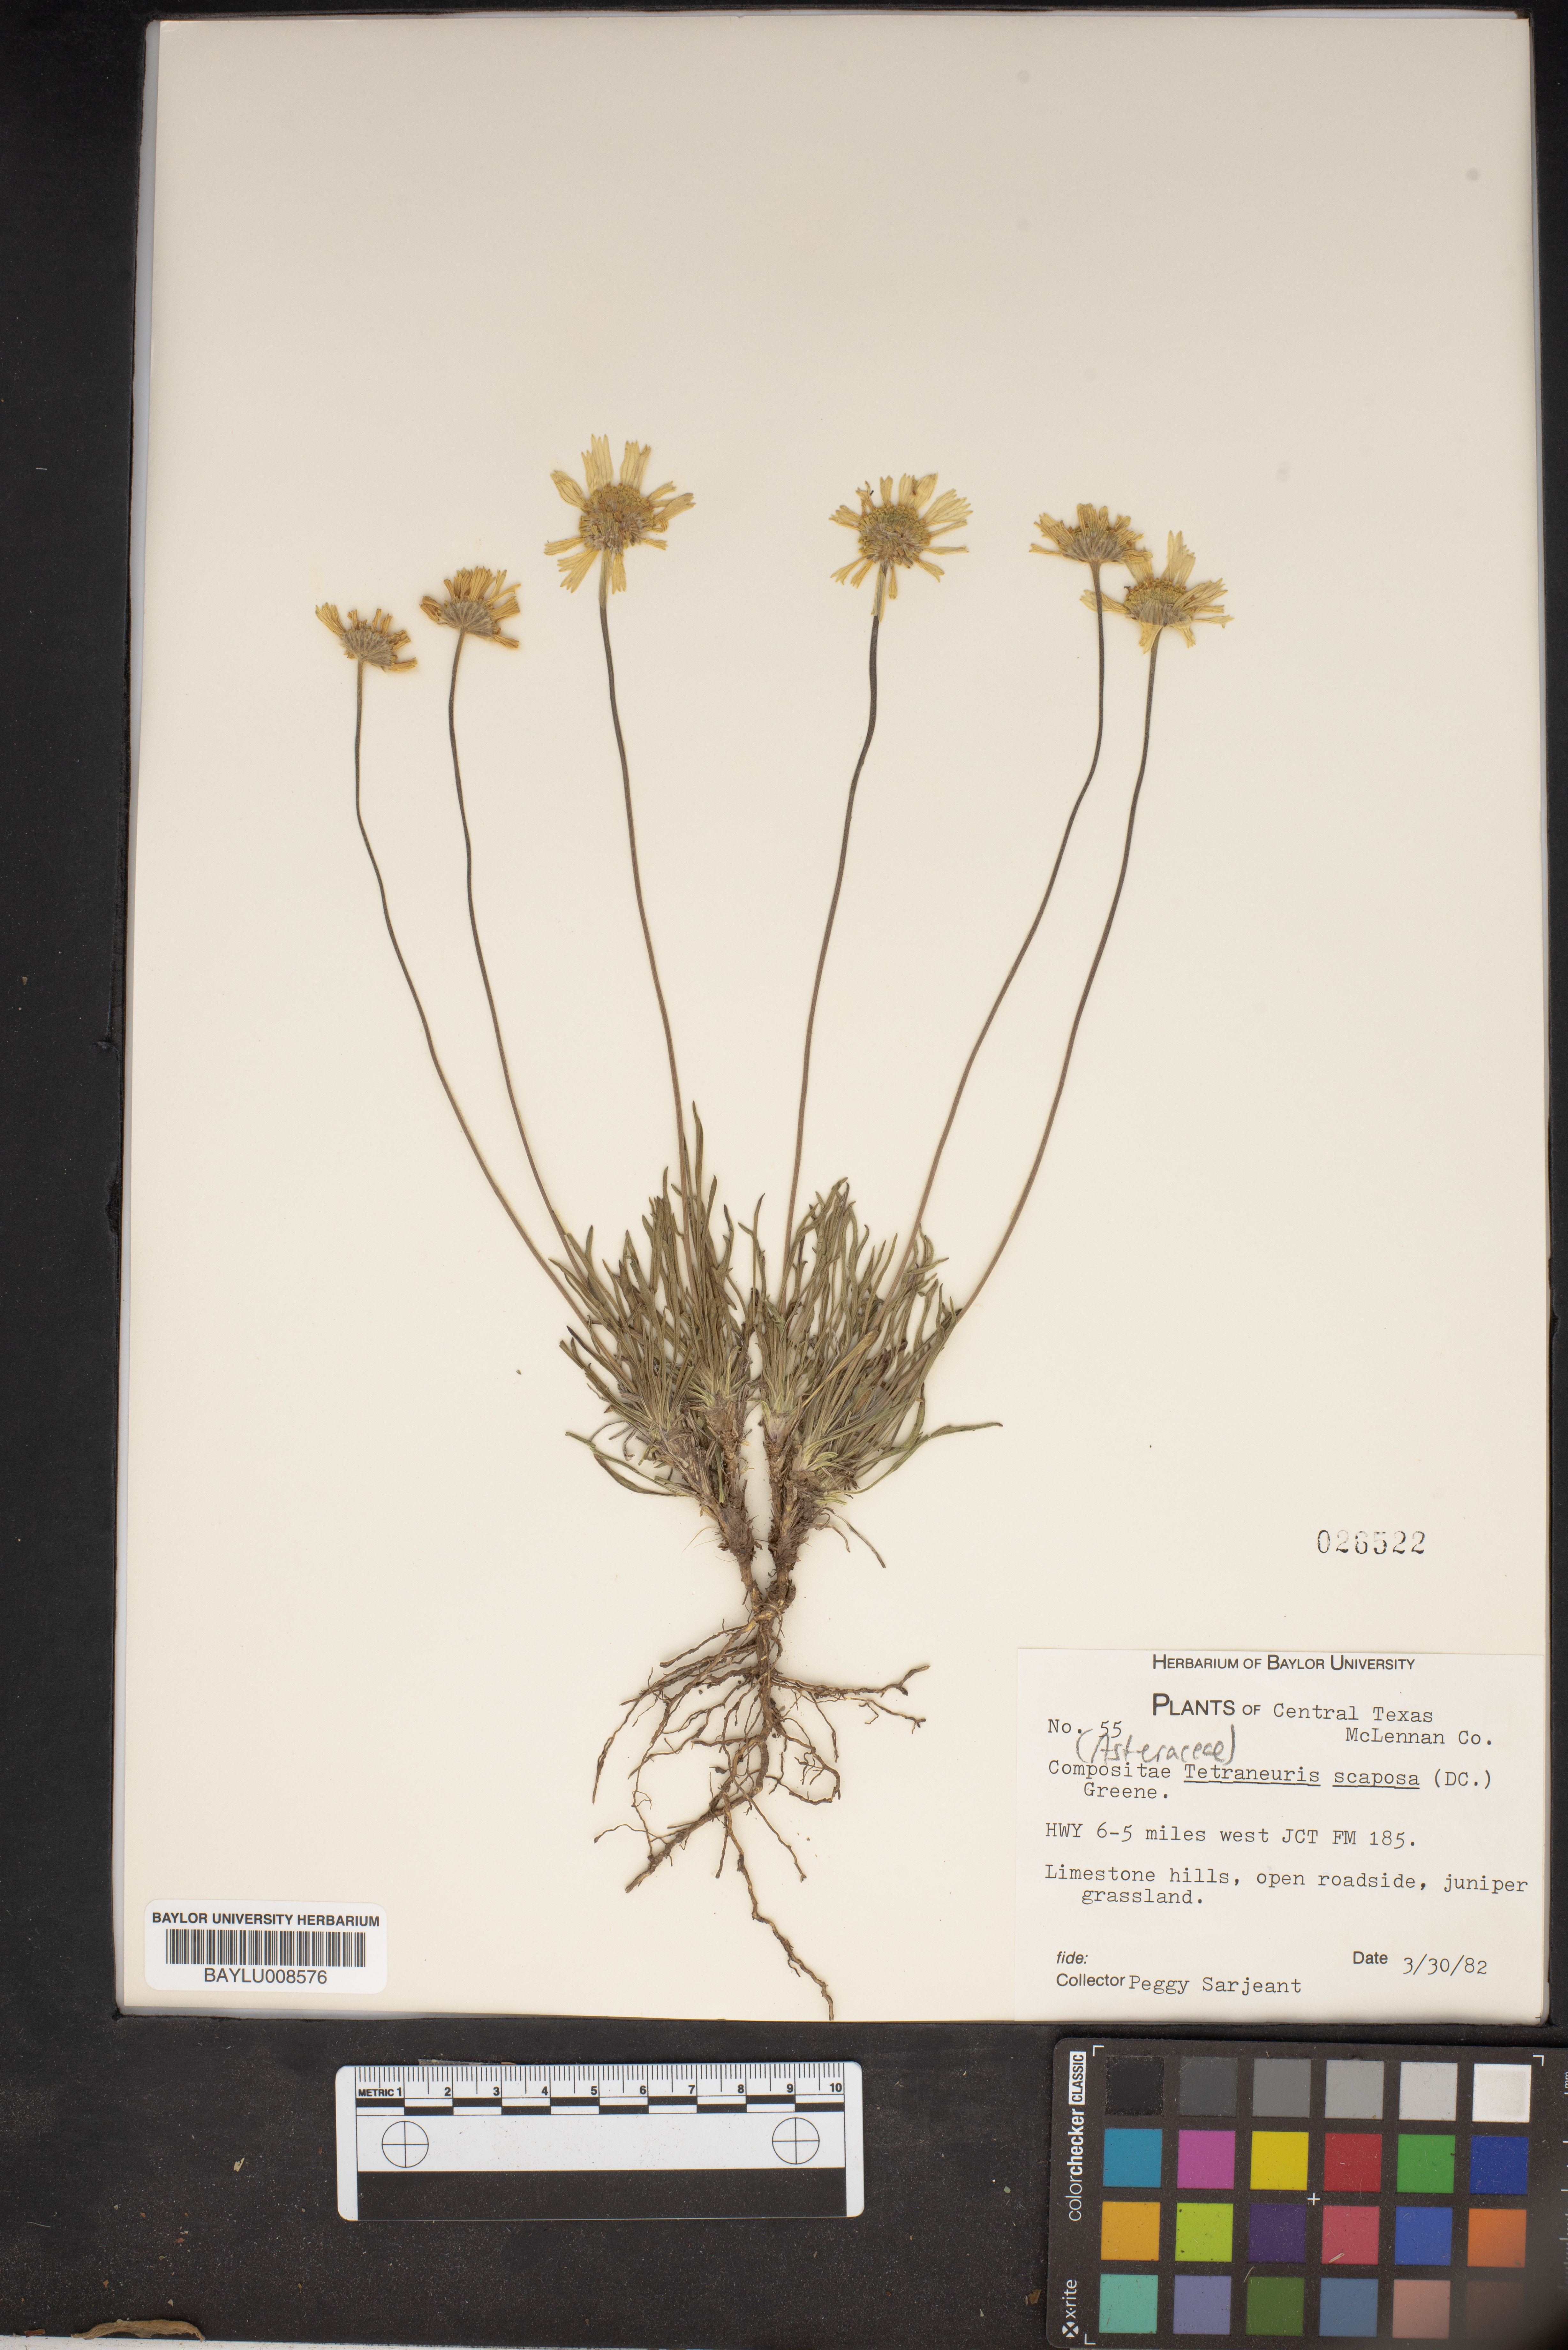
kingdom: Plantae
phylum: Tracheophyta
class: Magnoliopsida
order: Asterales
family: Asteraceae
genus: Tetraneuris
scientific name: Tetraneuris scaposa
